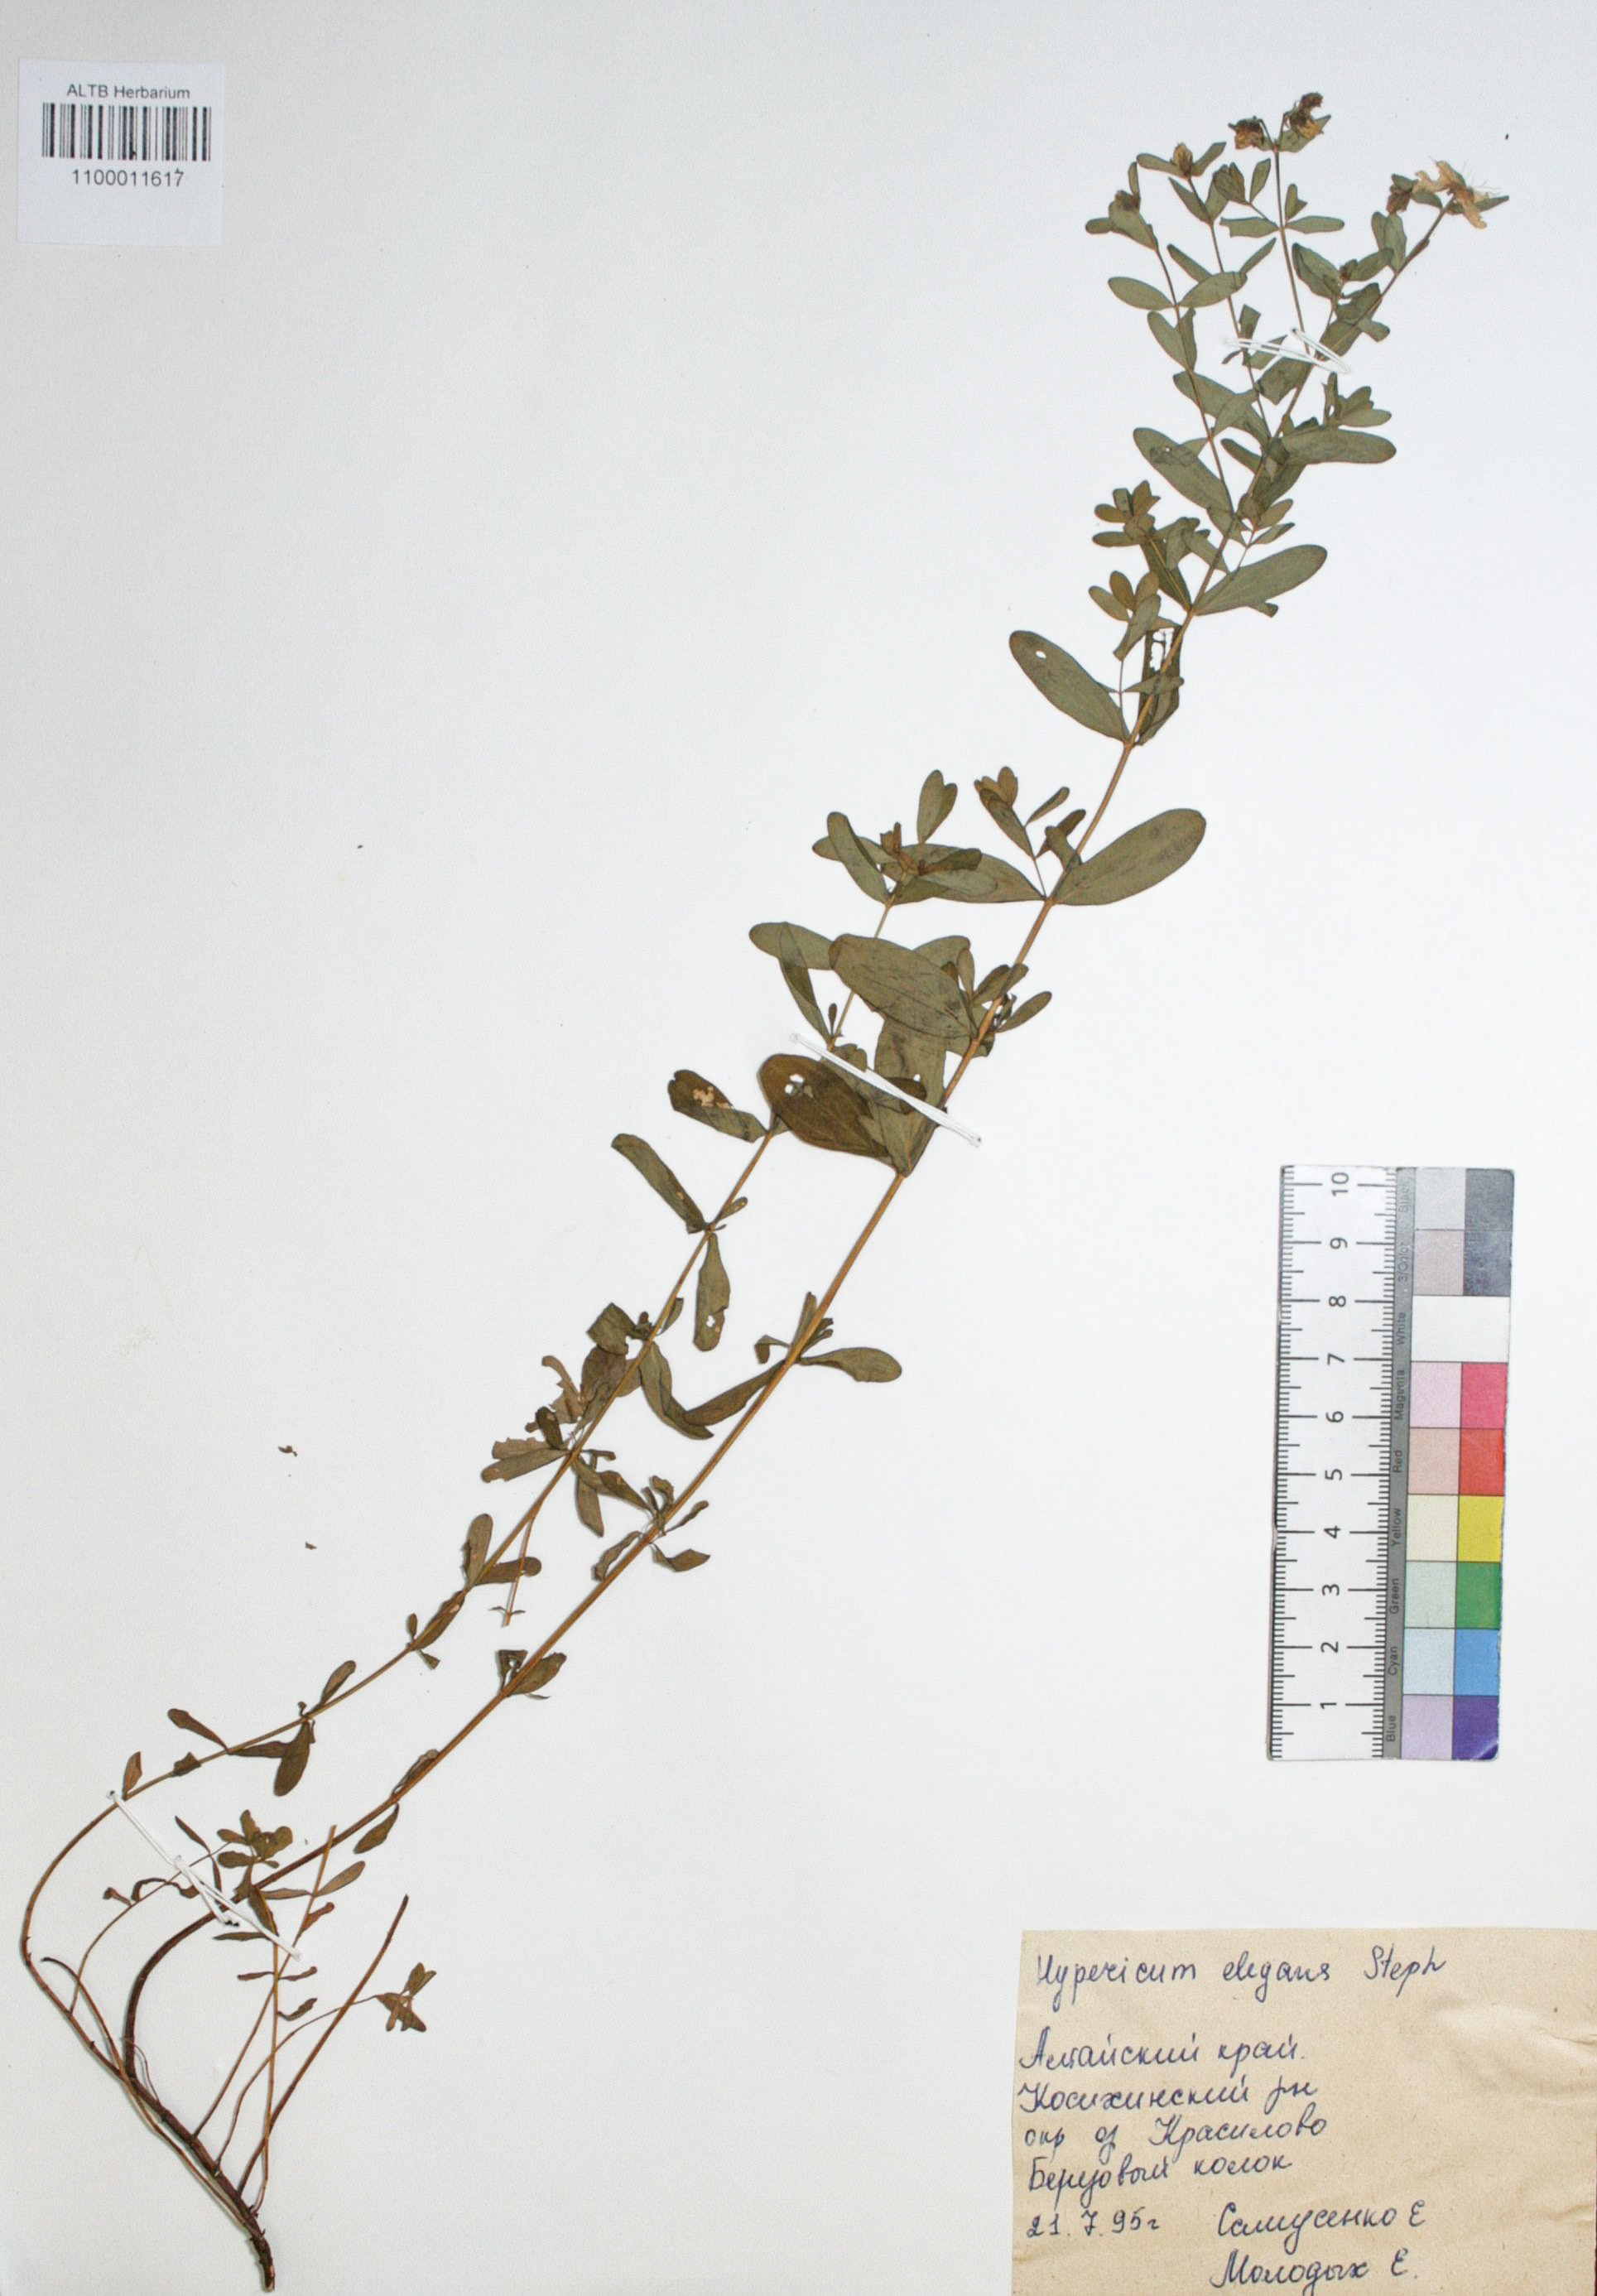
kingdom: Plantae
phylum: Tracheophyta
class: Magnoliopsida
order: Malpighiales
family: Hypericaceae
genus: Hypericum
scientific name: Hypericum elegans
